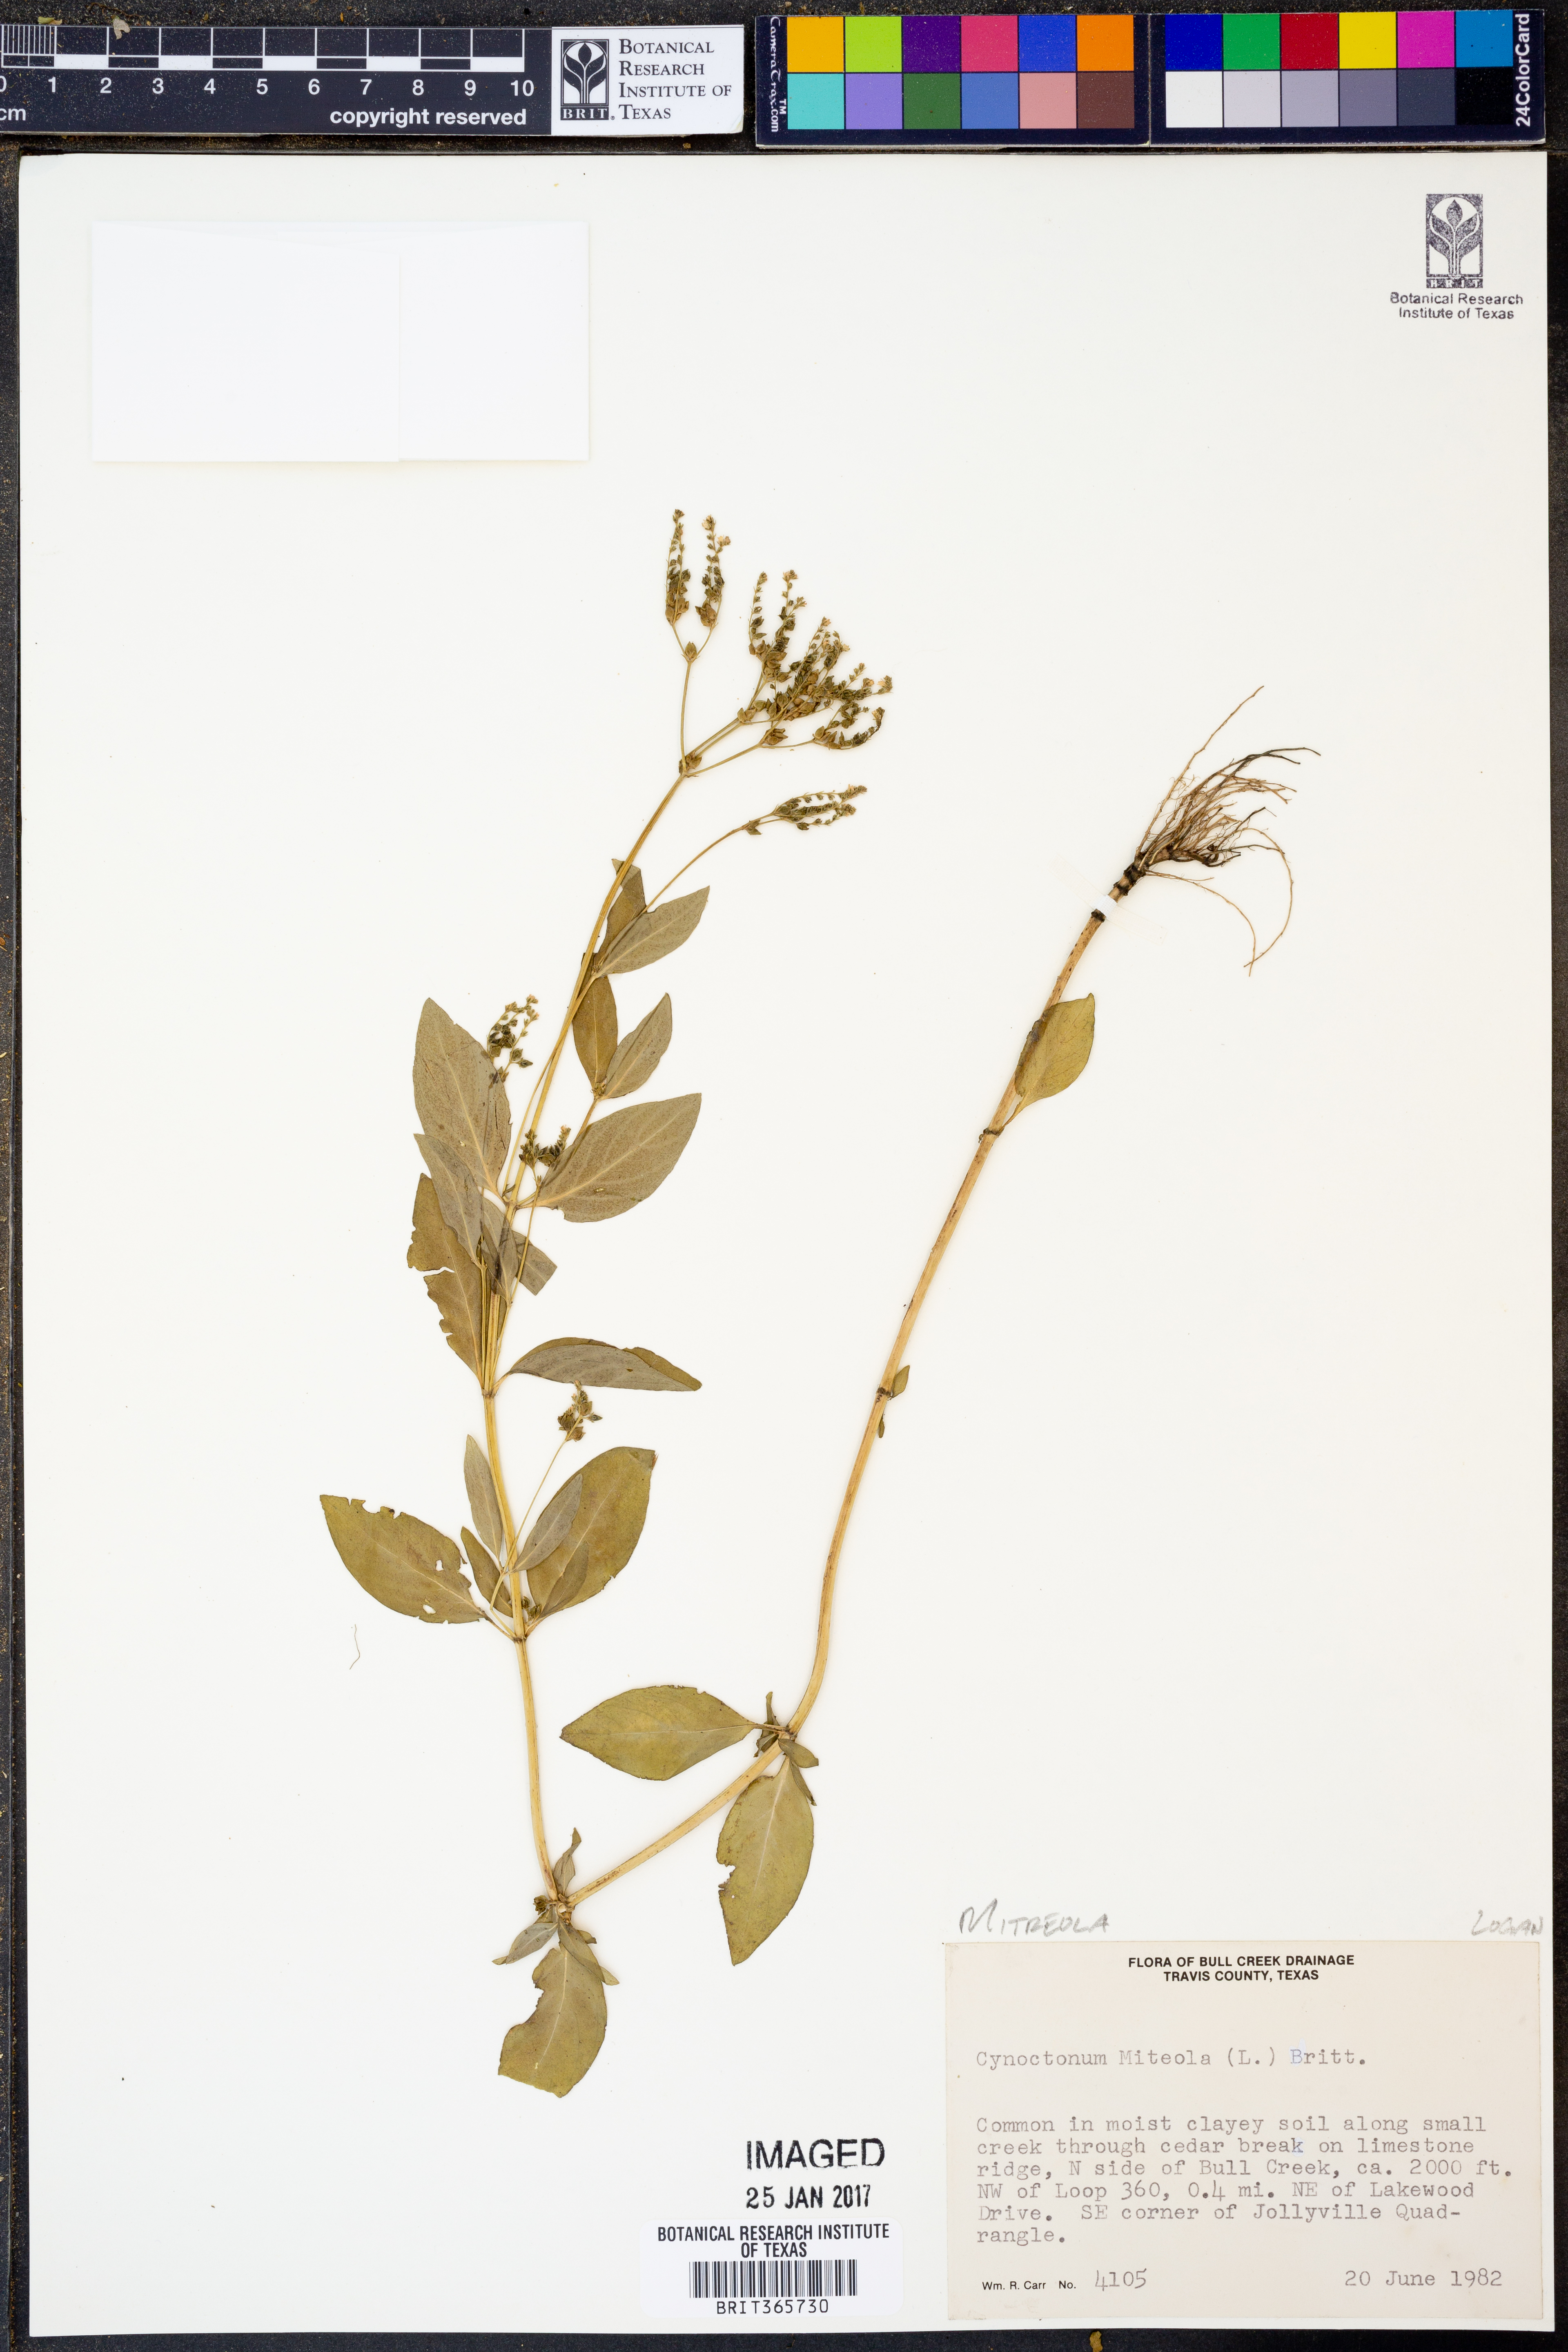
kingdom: Plantae
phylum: Tracheophyta
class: Magnoliopsida
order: Gentianales
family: Loganiaceae
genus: Mitreola
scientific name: Mitreola petiolata
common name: Lax hornpod
